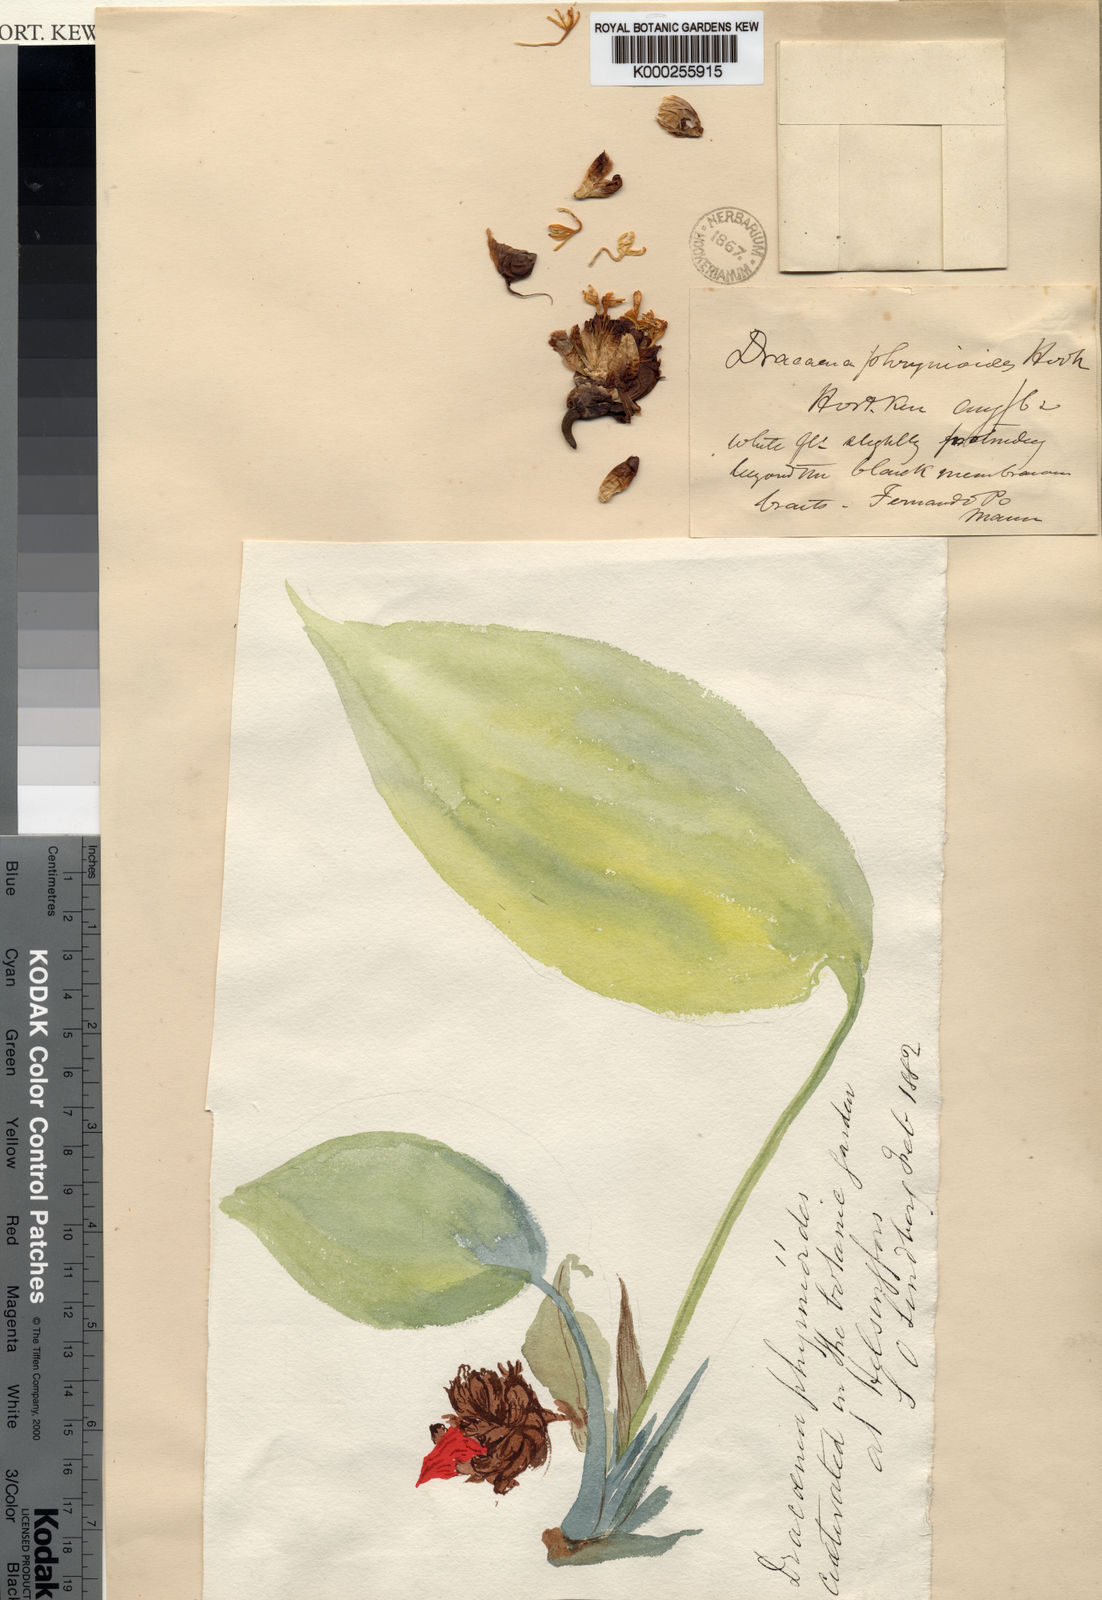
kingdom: Plantae
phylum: Tracheophyta
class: Liliopsida
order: Asparagales
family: Asparagaceae
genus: Dracaena
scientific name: Dracaena phrynioides
